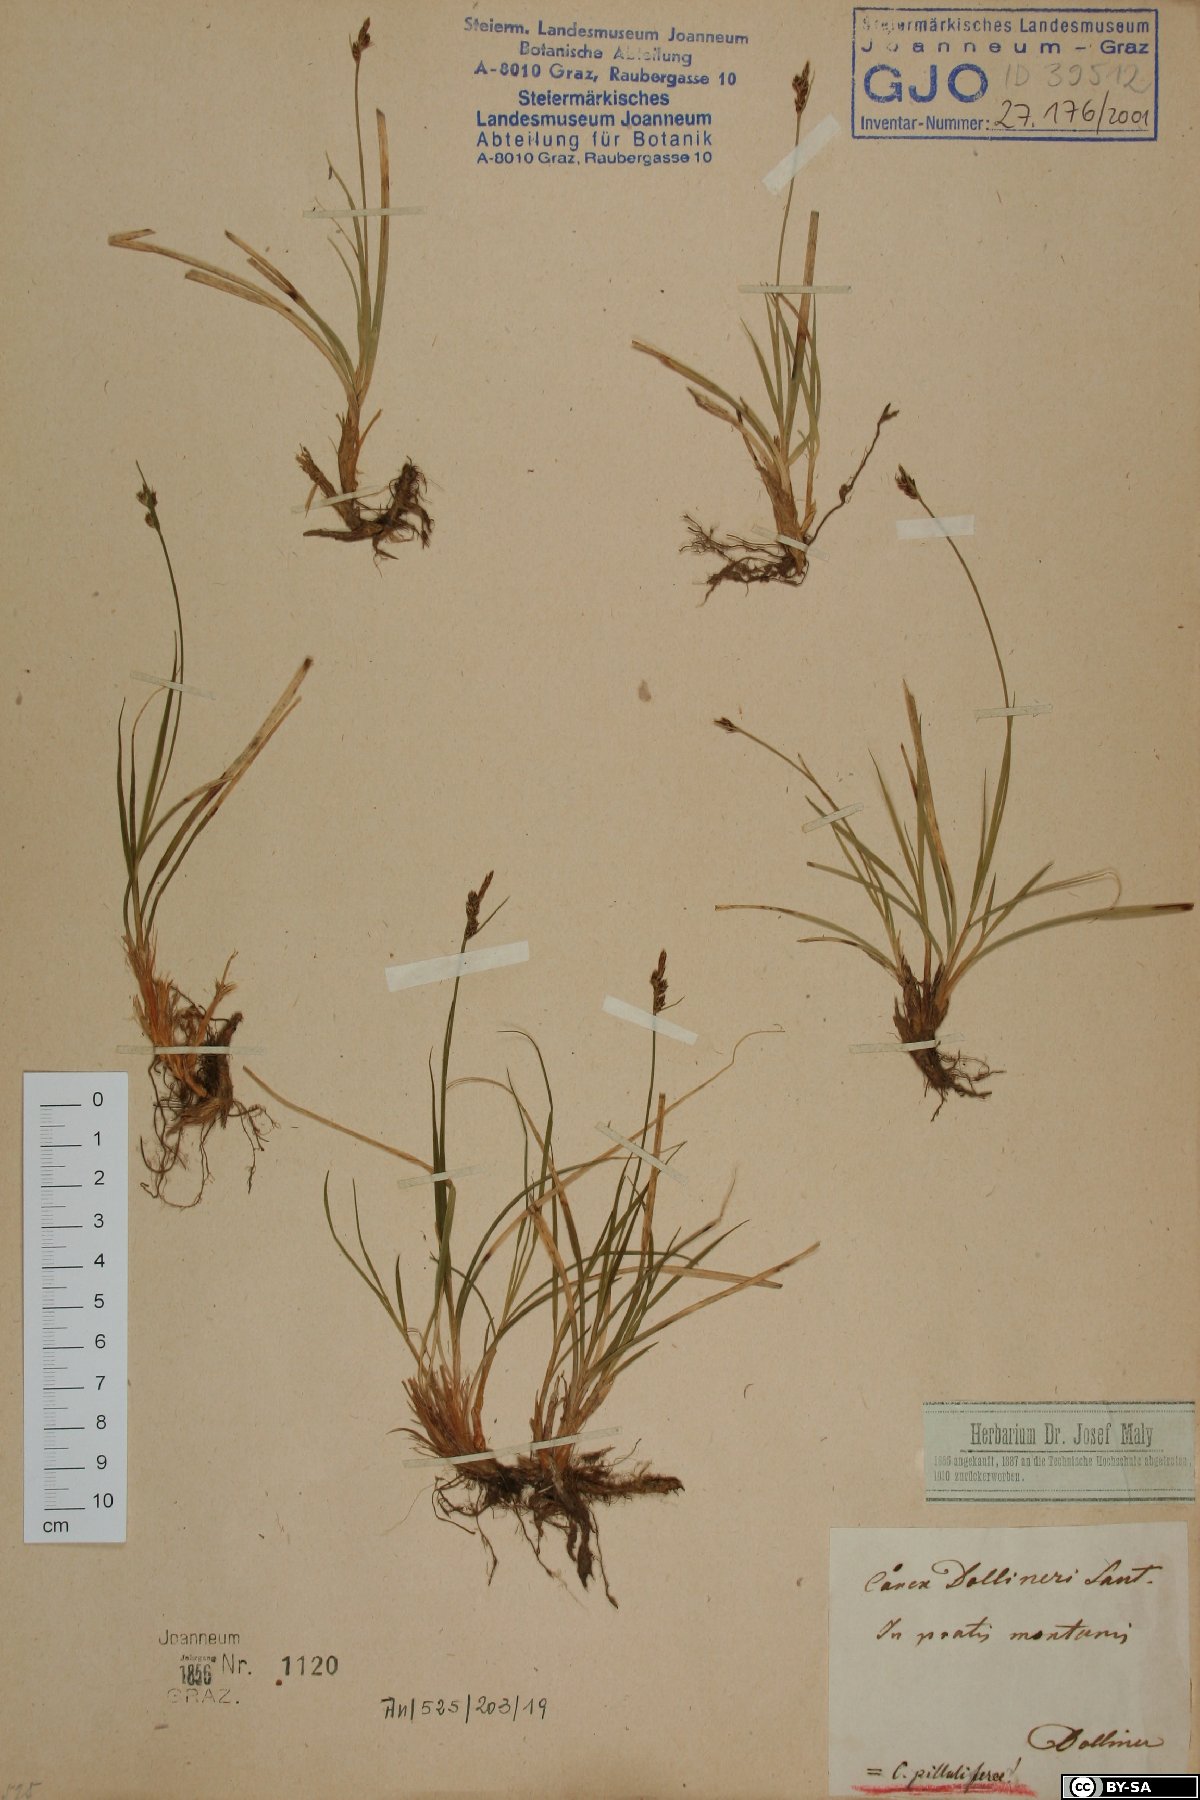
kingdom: Plantae
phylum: Tracheophyta
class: Liliopsida
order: Poales
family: Cyperaceae
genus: Carex
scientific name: Carex pilulifera
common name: Pill sedge
